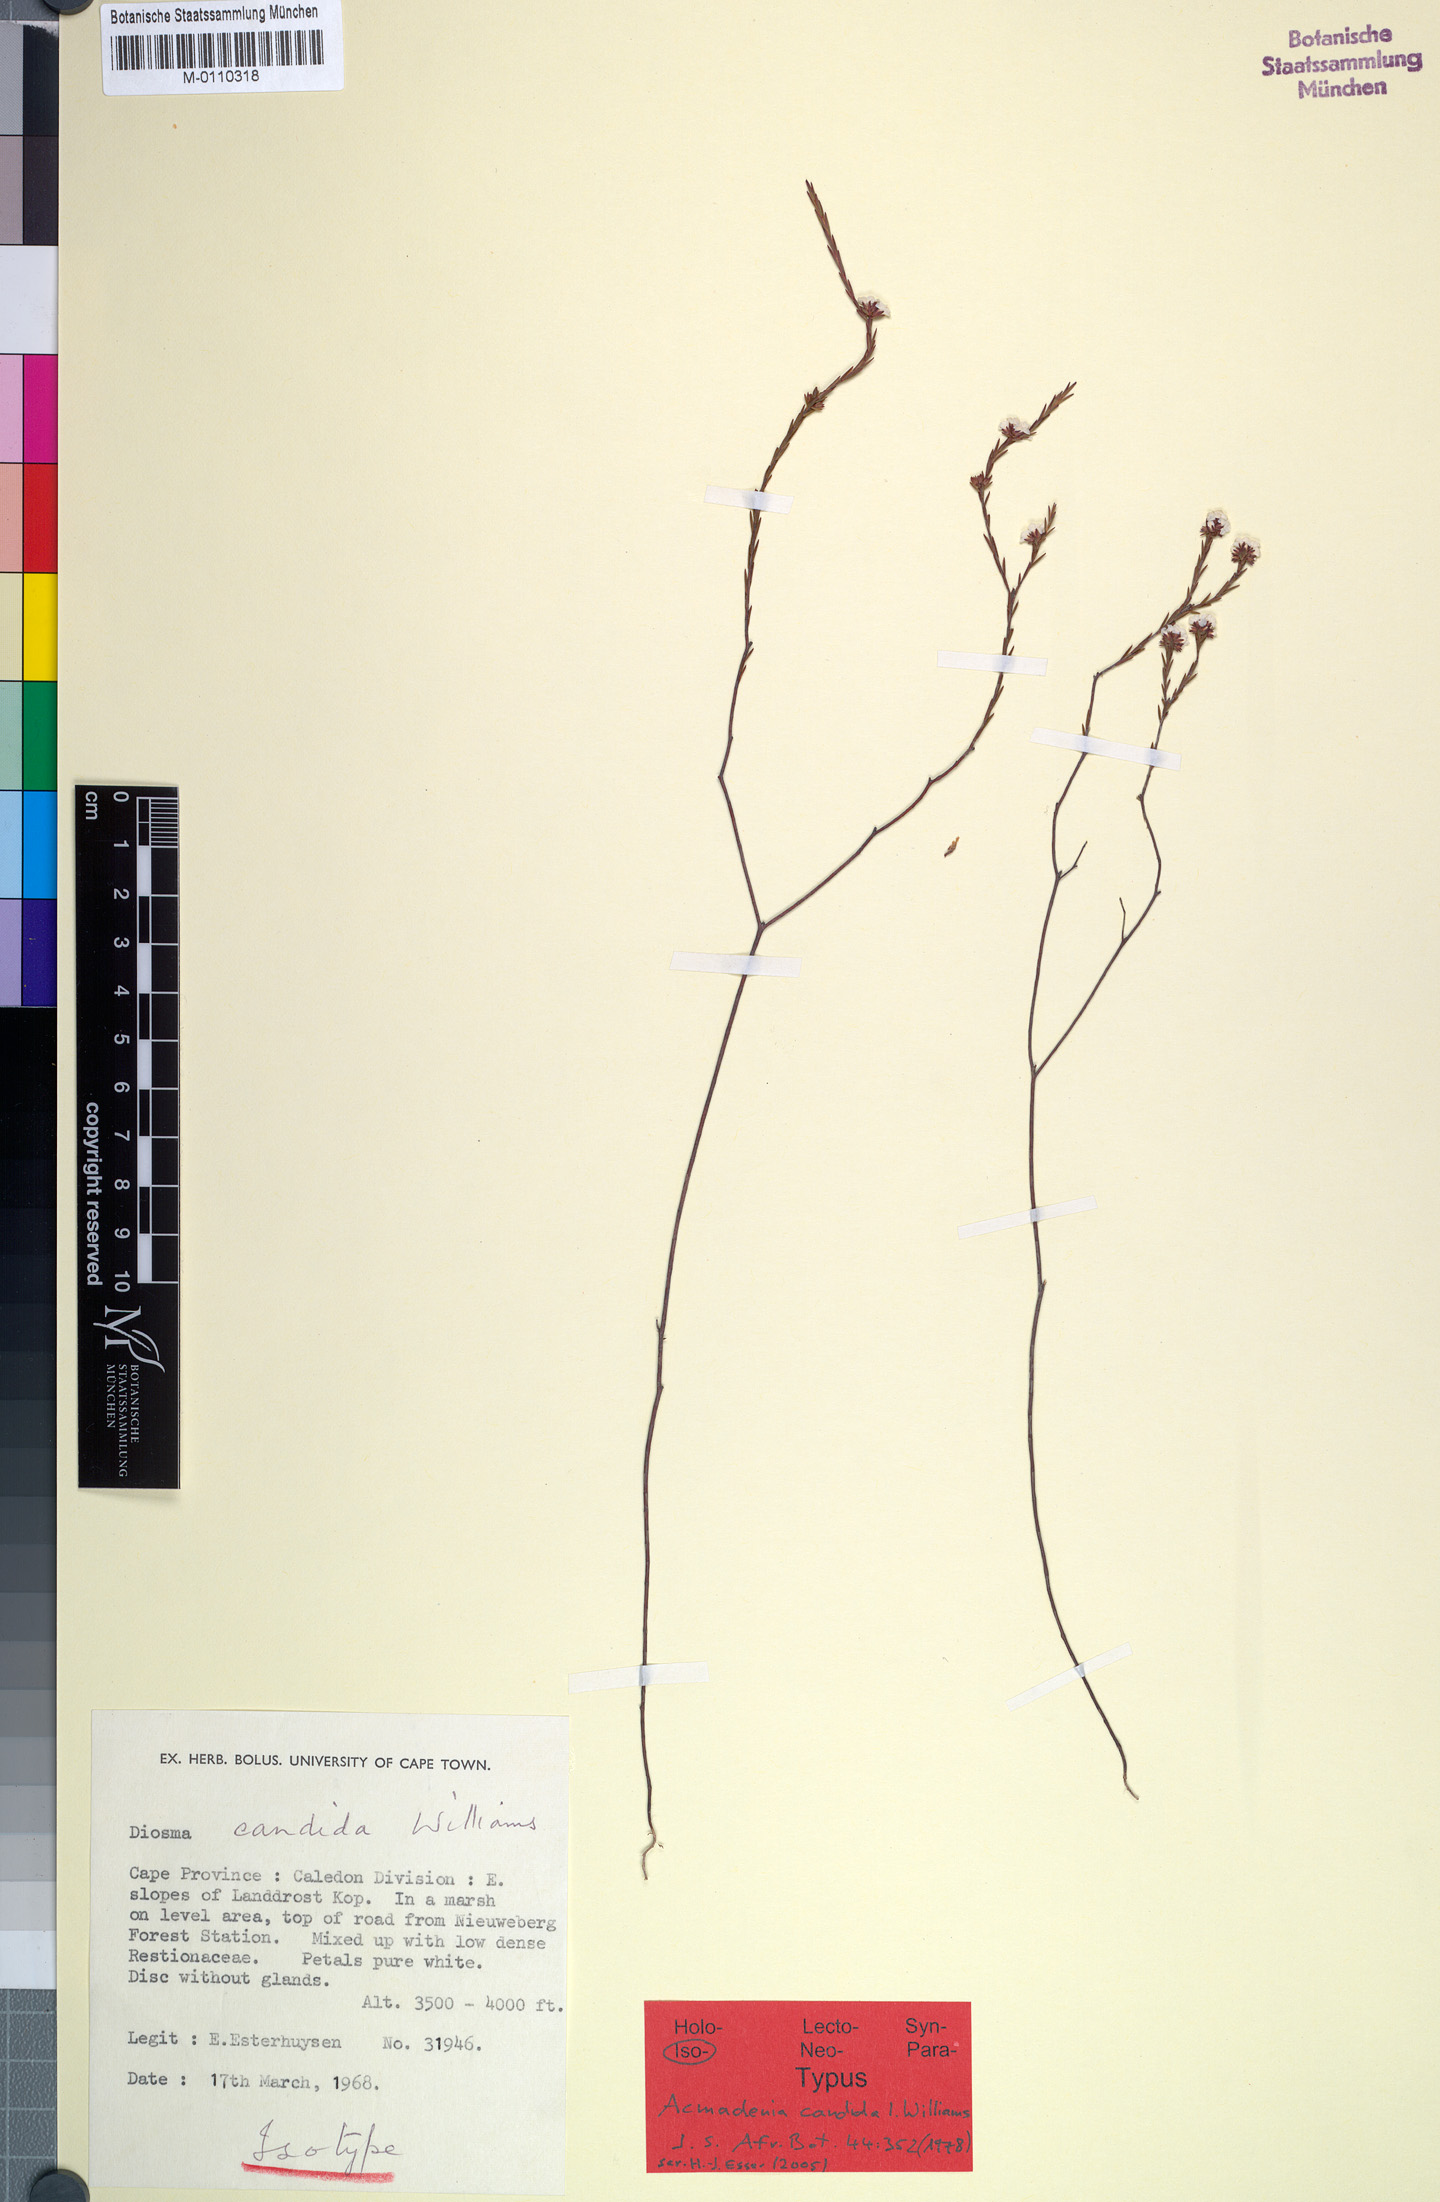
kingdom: Plantae
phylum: Tracheophyta
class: Magnoliopsida
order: Sapindales
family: Rutaceae
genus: Acmadenia
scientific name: Acmadenia candida
